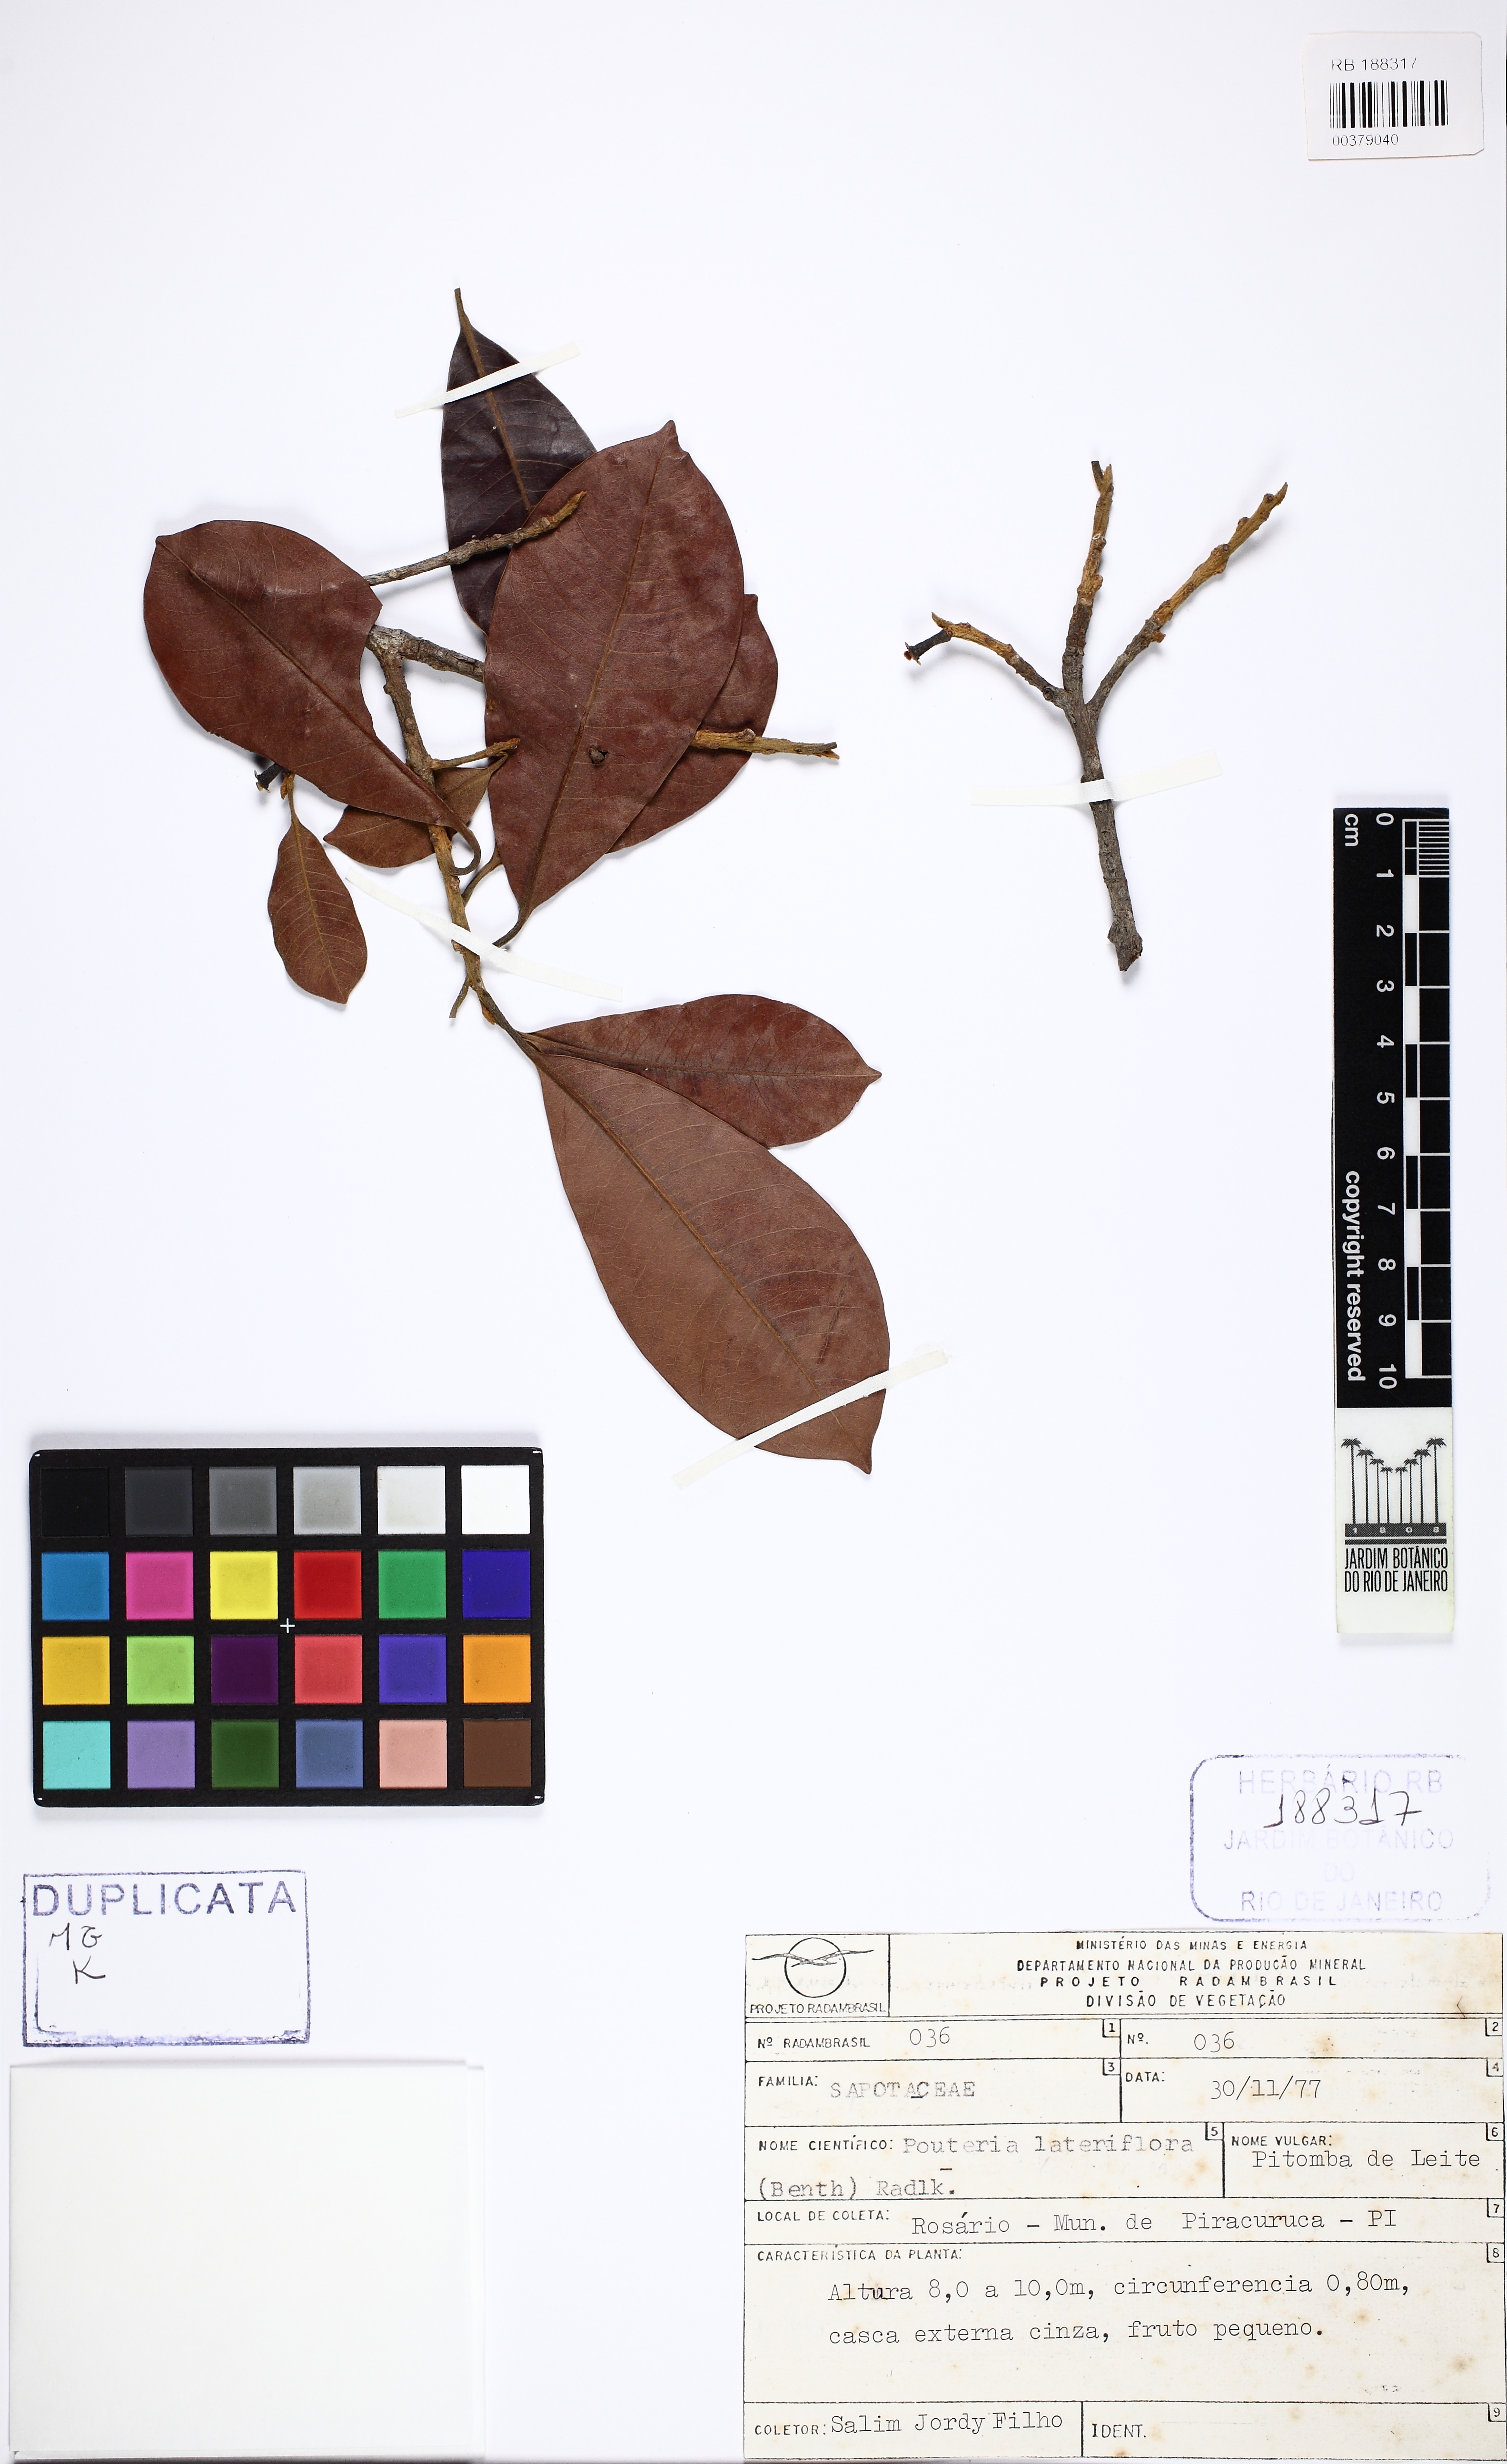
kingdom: Plantae
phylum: Tracheophyta
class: Magnoliopsida
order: Ericales
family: Sapotaceae
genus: Pouteria
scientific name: Pouteria ramiflora
